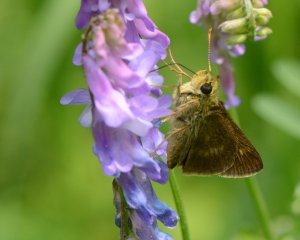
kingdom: Animalia
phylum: Arthropoda
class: Insecta
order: Lepidoptera
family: Hesperiidae
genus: Polites
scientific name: Polites egeremet
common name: Northern Broken-Dash
